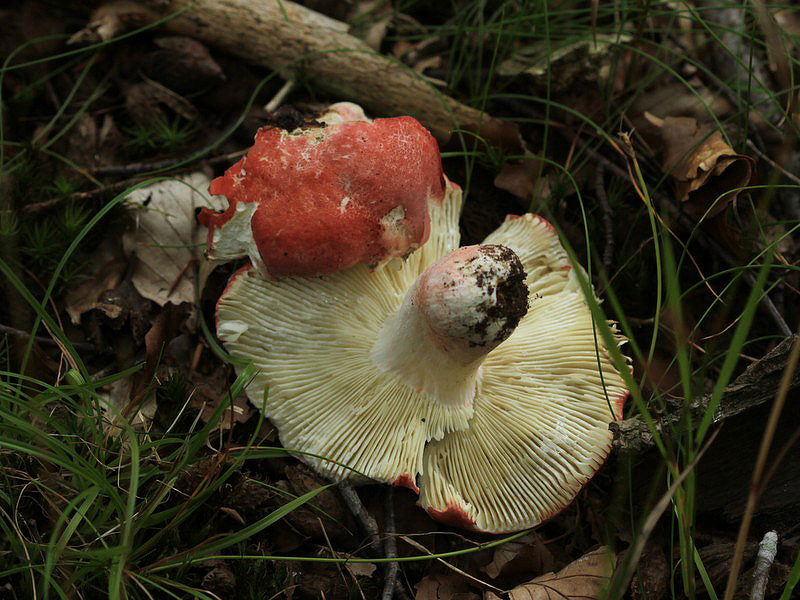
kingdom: Fungi
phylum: Basidiomycota
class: Agaricomycetes
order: Russulales
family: Russulaceae
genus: Russula
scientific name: Russula rosea
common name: fastkødet skørhat
